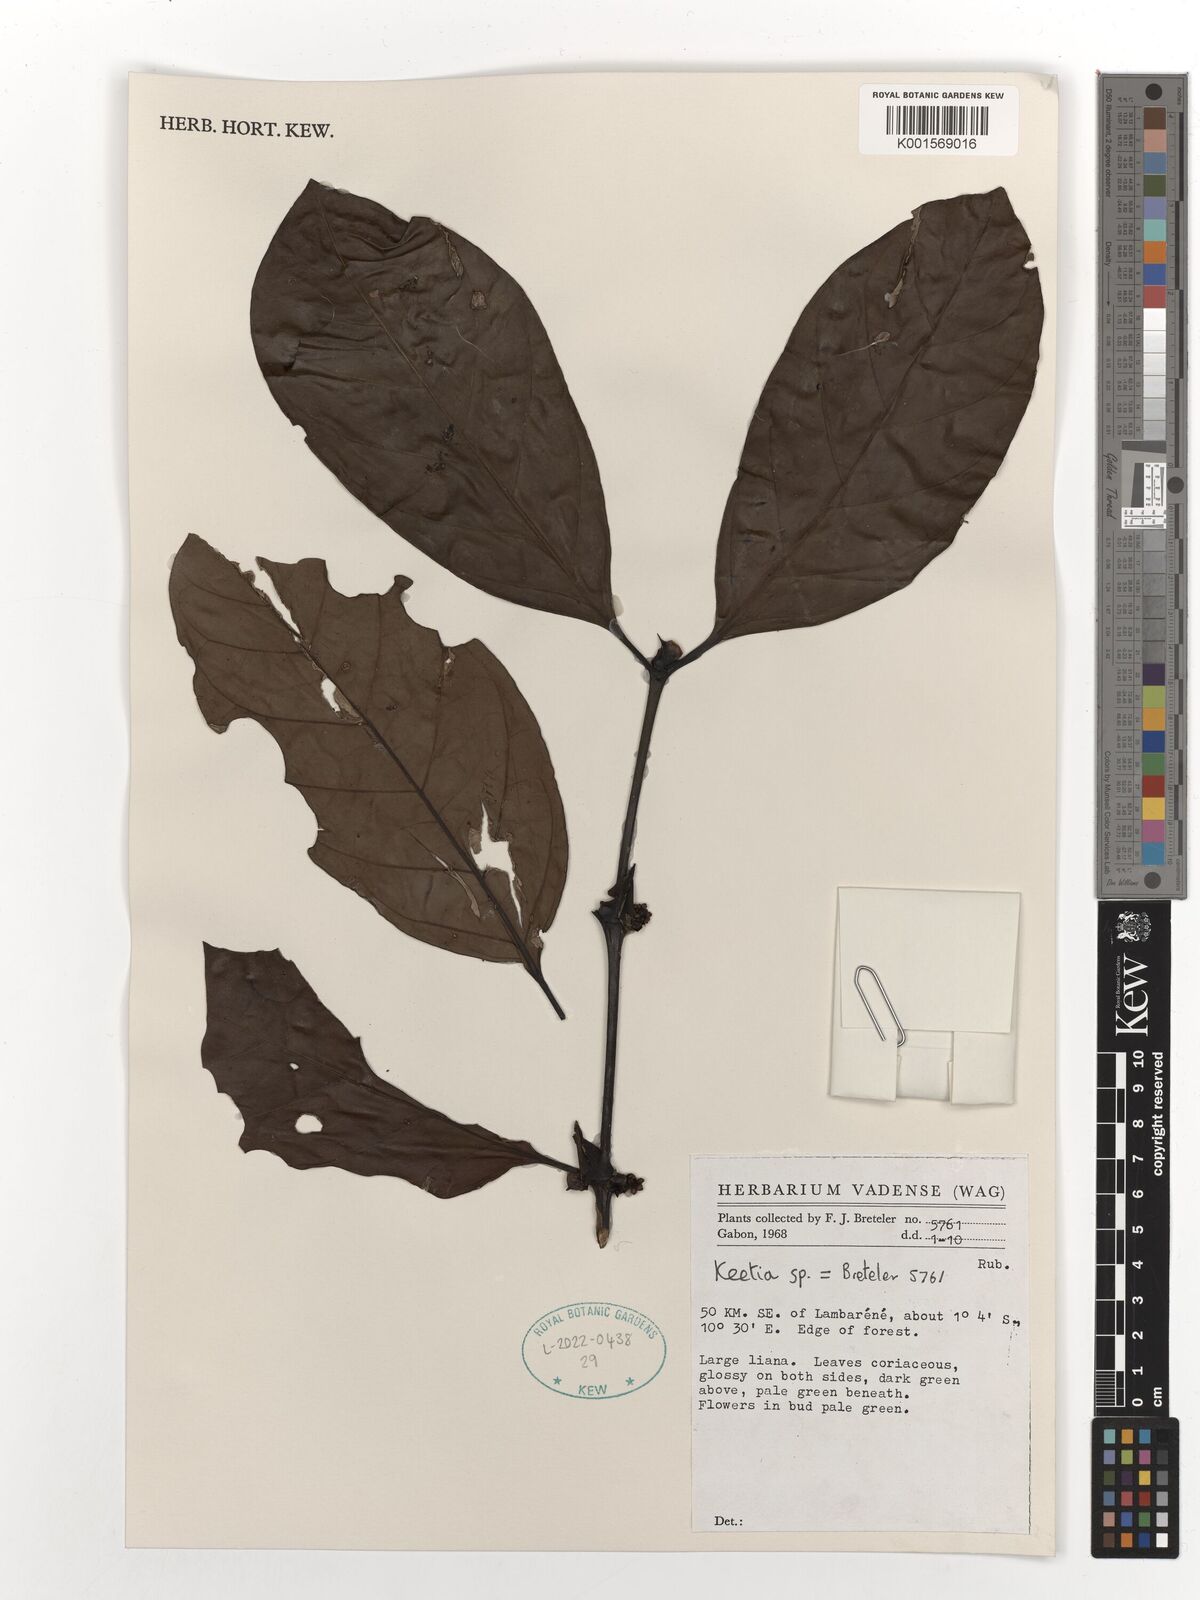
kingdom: Plantae
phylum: Tracheophyta
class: Magnoliopsida
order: Gentianales
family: Rubiaceae
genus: Keetia
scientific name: Keetia
